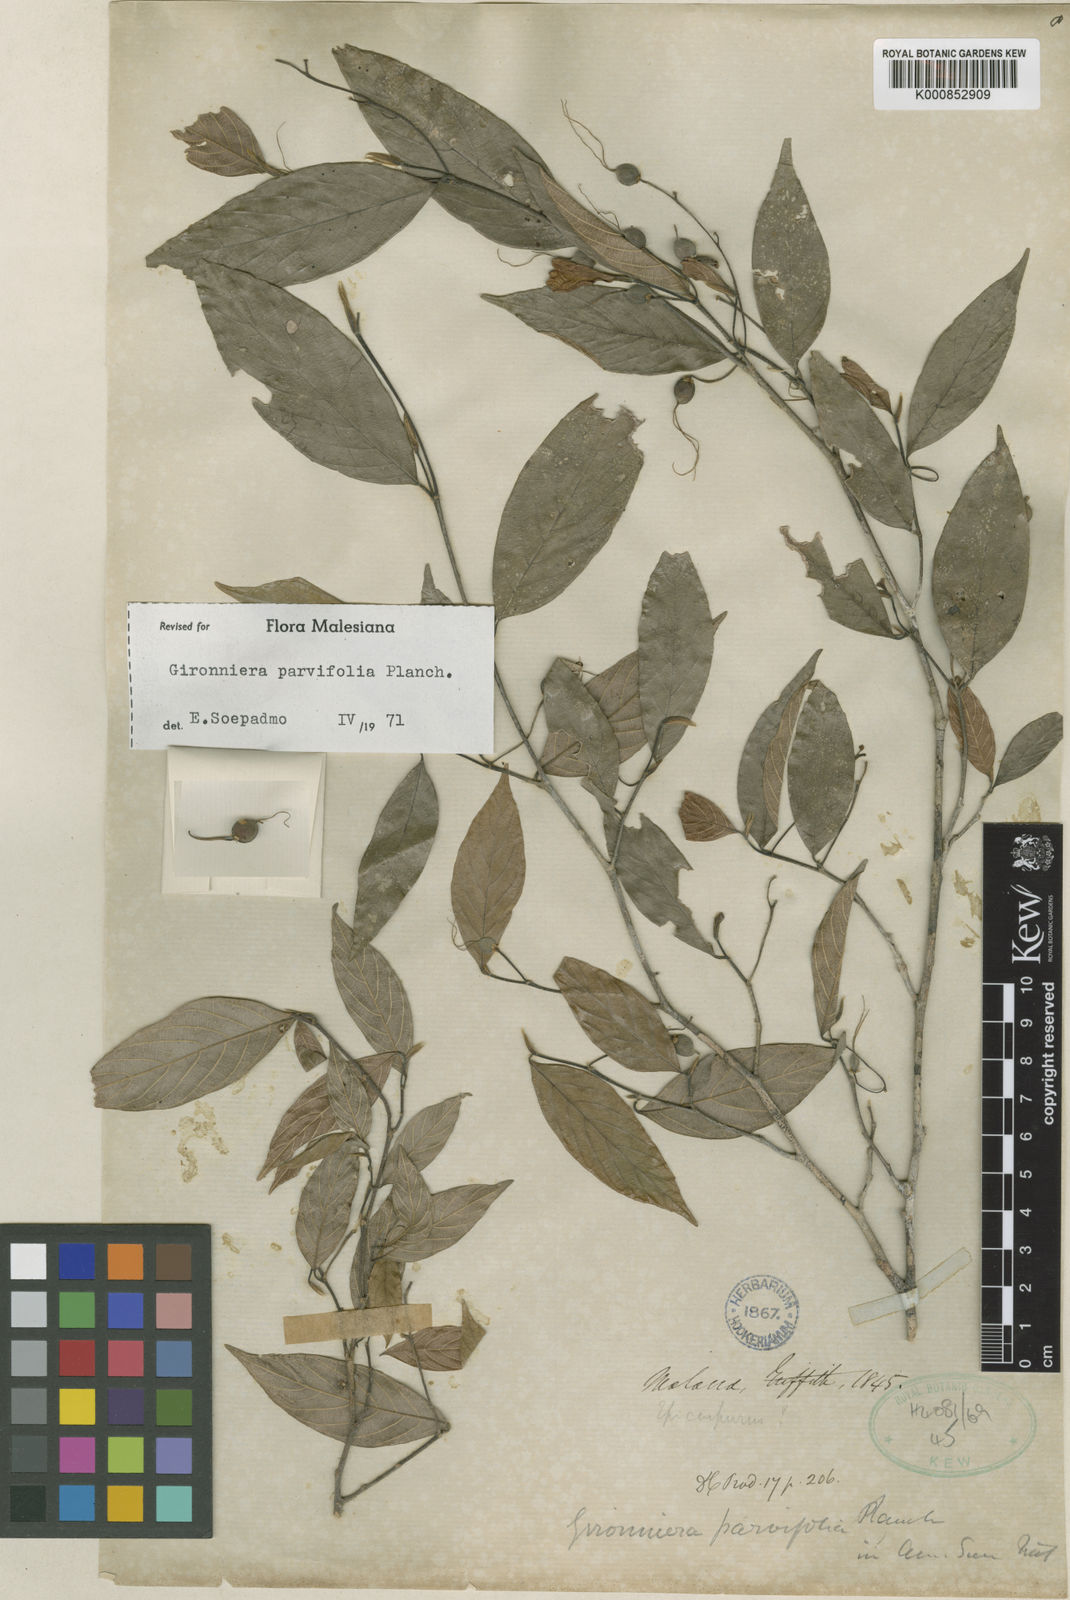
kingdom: Plantae
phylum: Tracheophyta
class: Magnoliopsida
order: Rosales
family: Cannabaceae
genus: Gironniera
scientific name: Gironniera parvifolia
